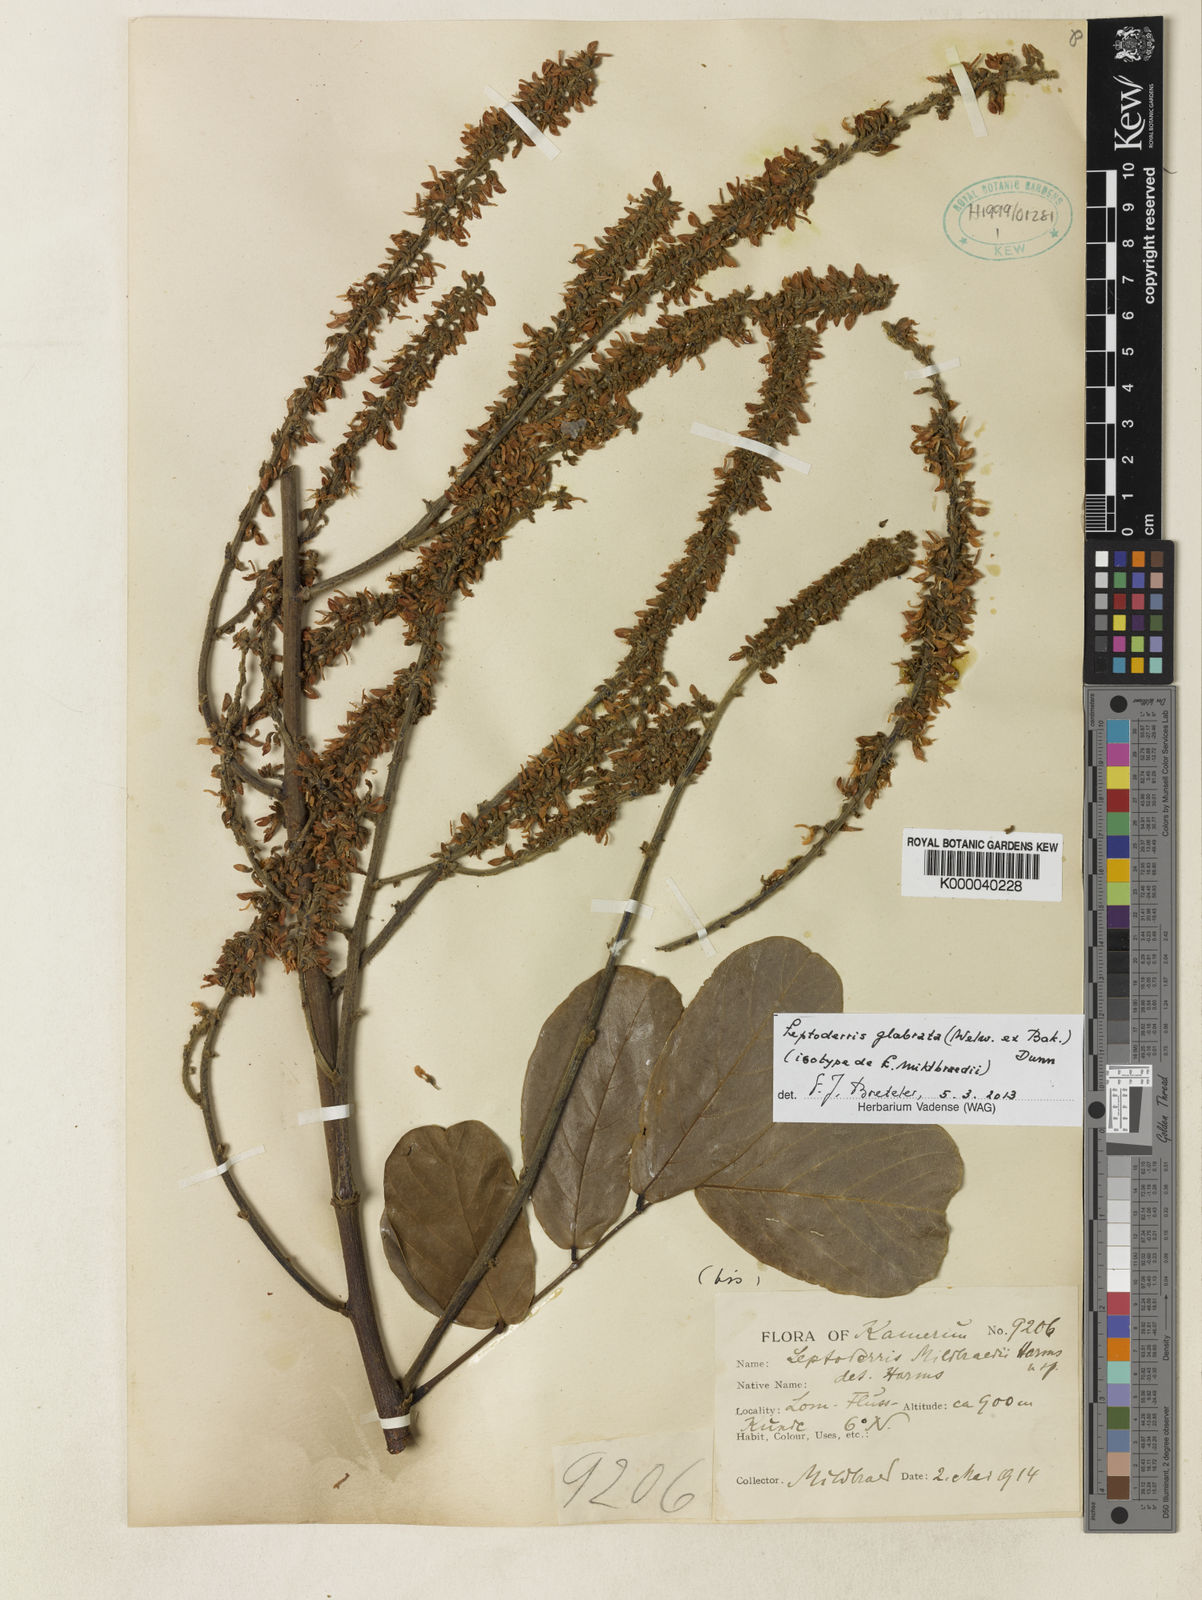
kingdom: Plantae
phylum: Tracheophyta
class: Magnoliopsida
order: Fabales
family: Fabaceae
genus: Leptoderris
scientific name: Leptoderris glabrata
